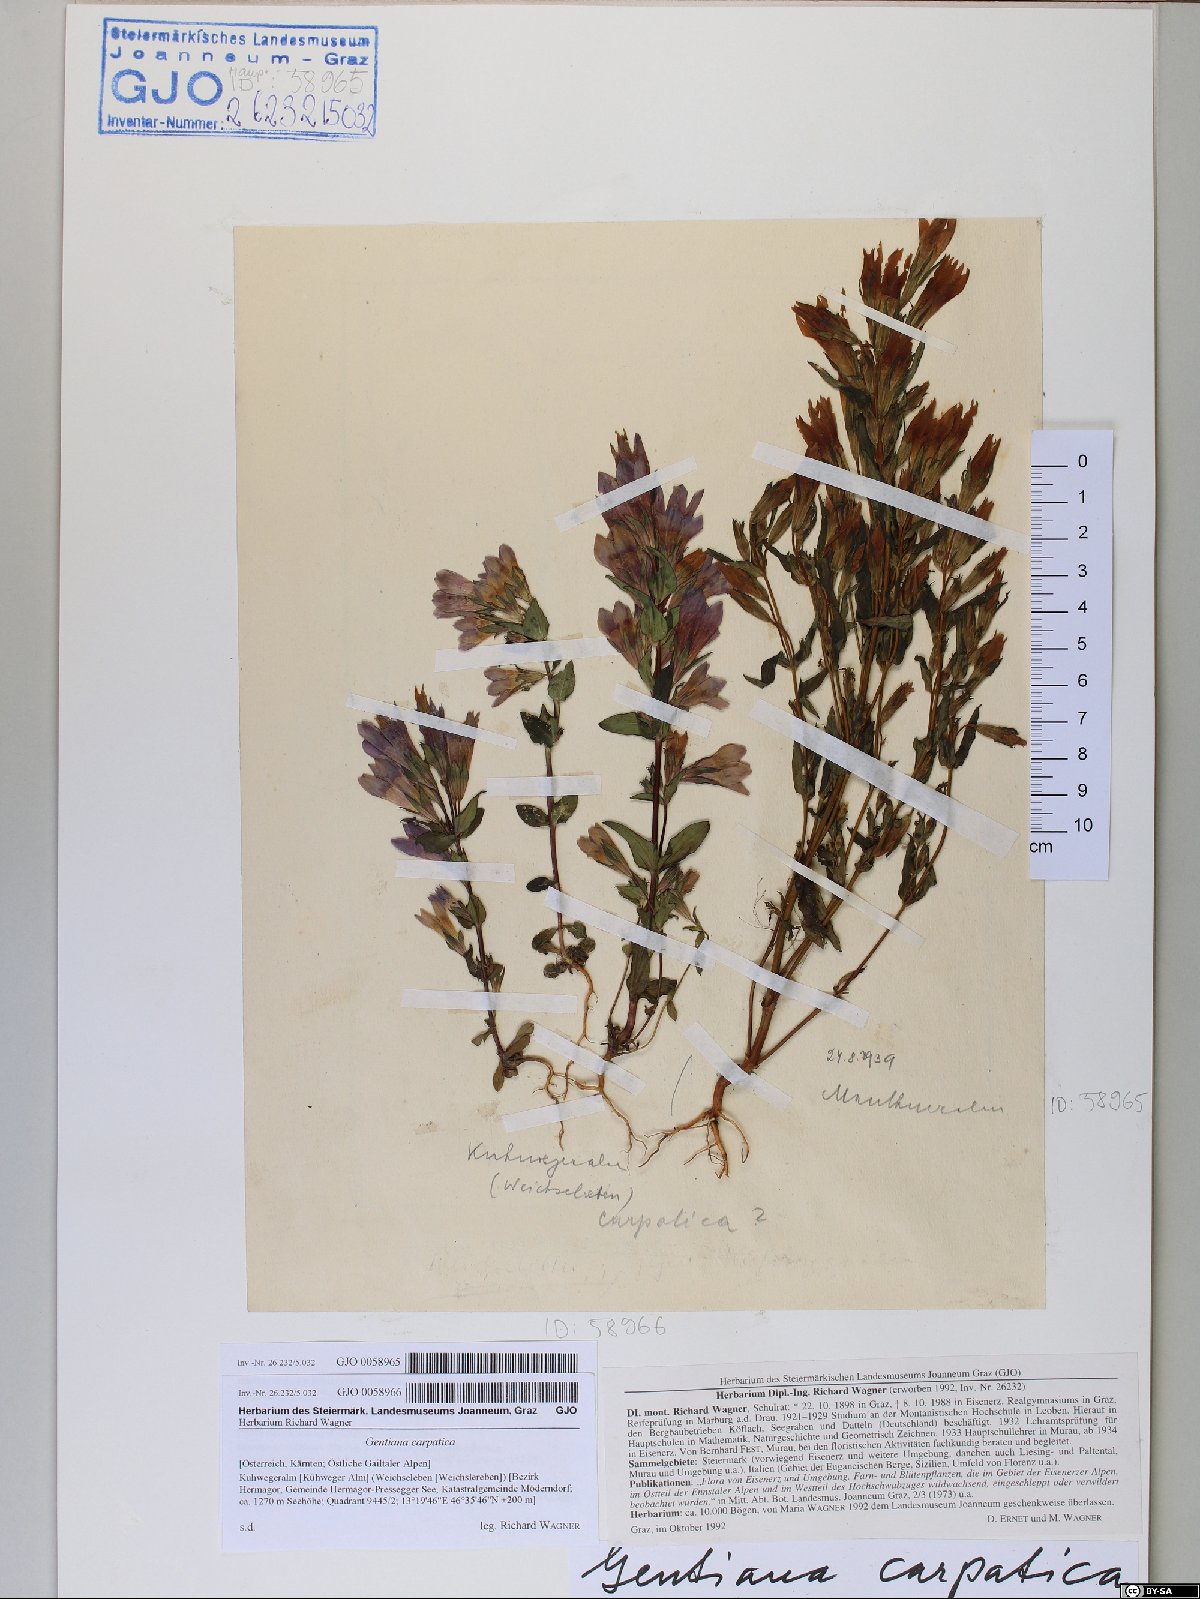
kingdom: Plantae
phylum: Tracheophyta
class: Magnoliopsida
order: Gentianales
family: Gentianaceae
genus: Gentianella
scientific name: Gentianella praecox
